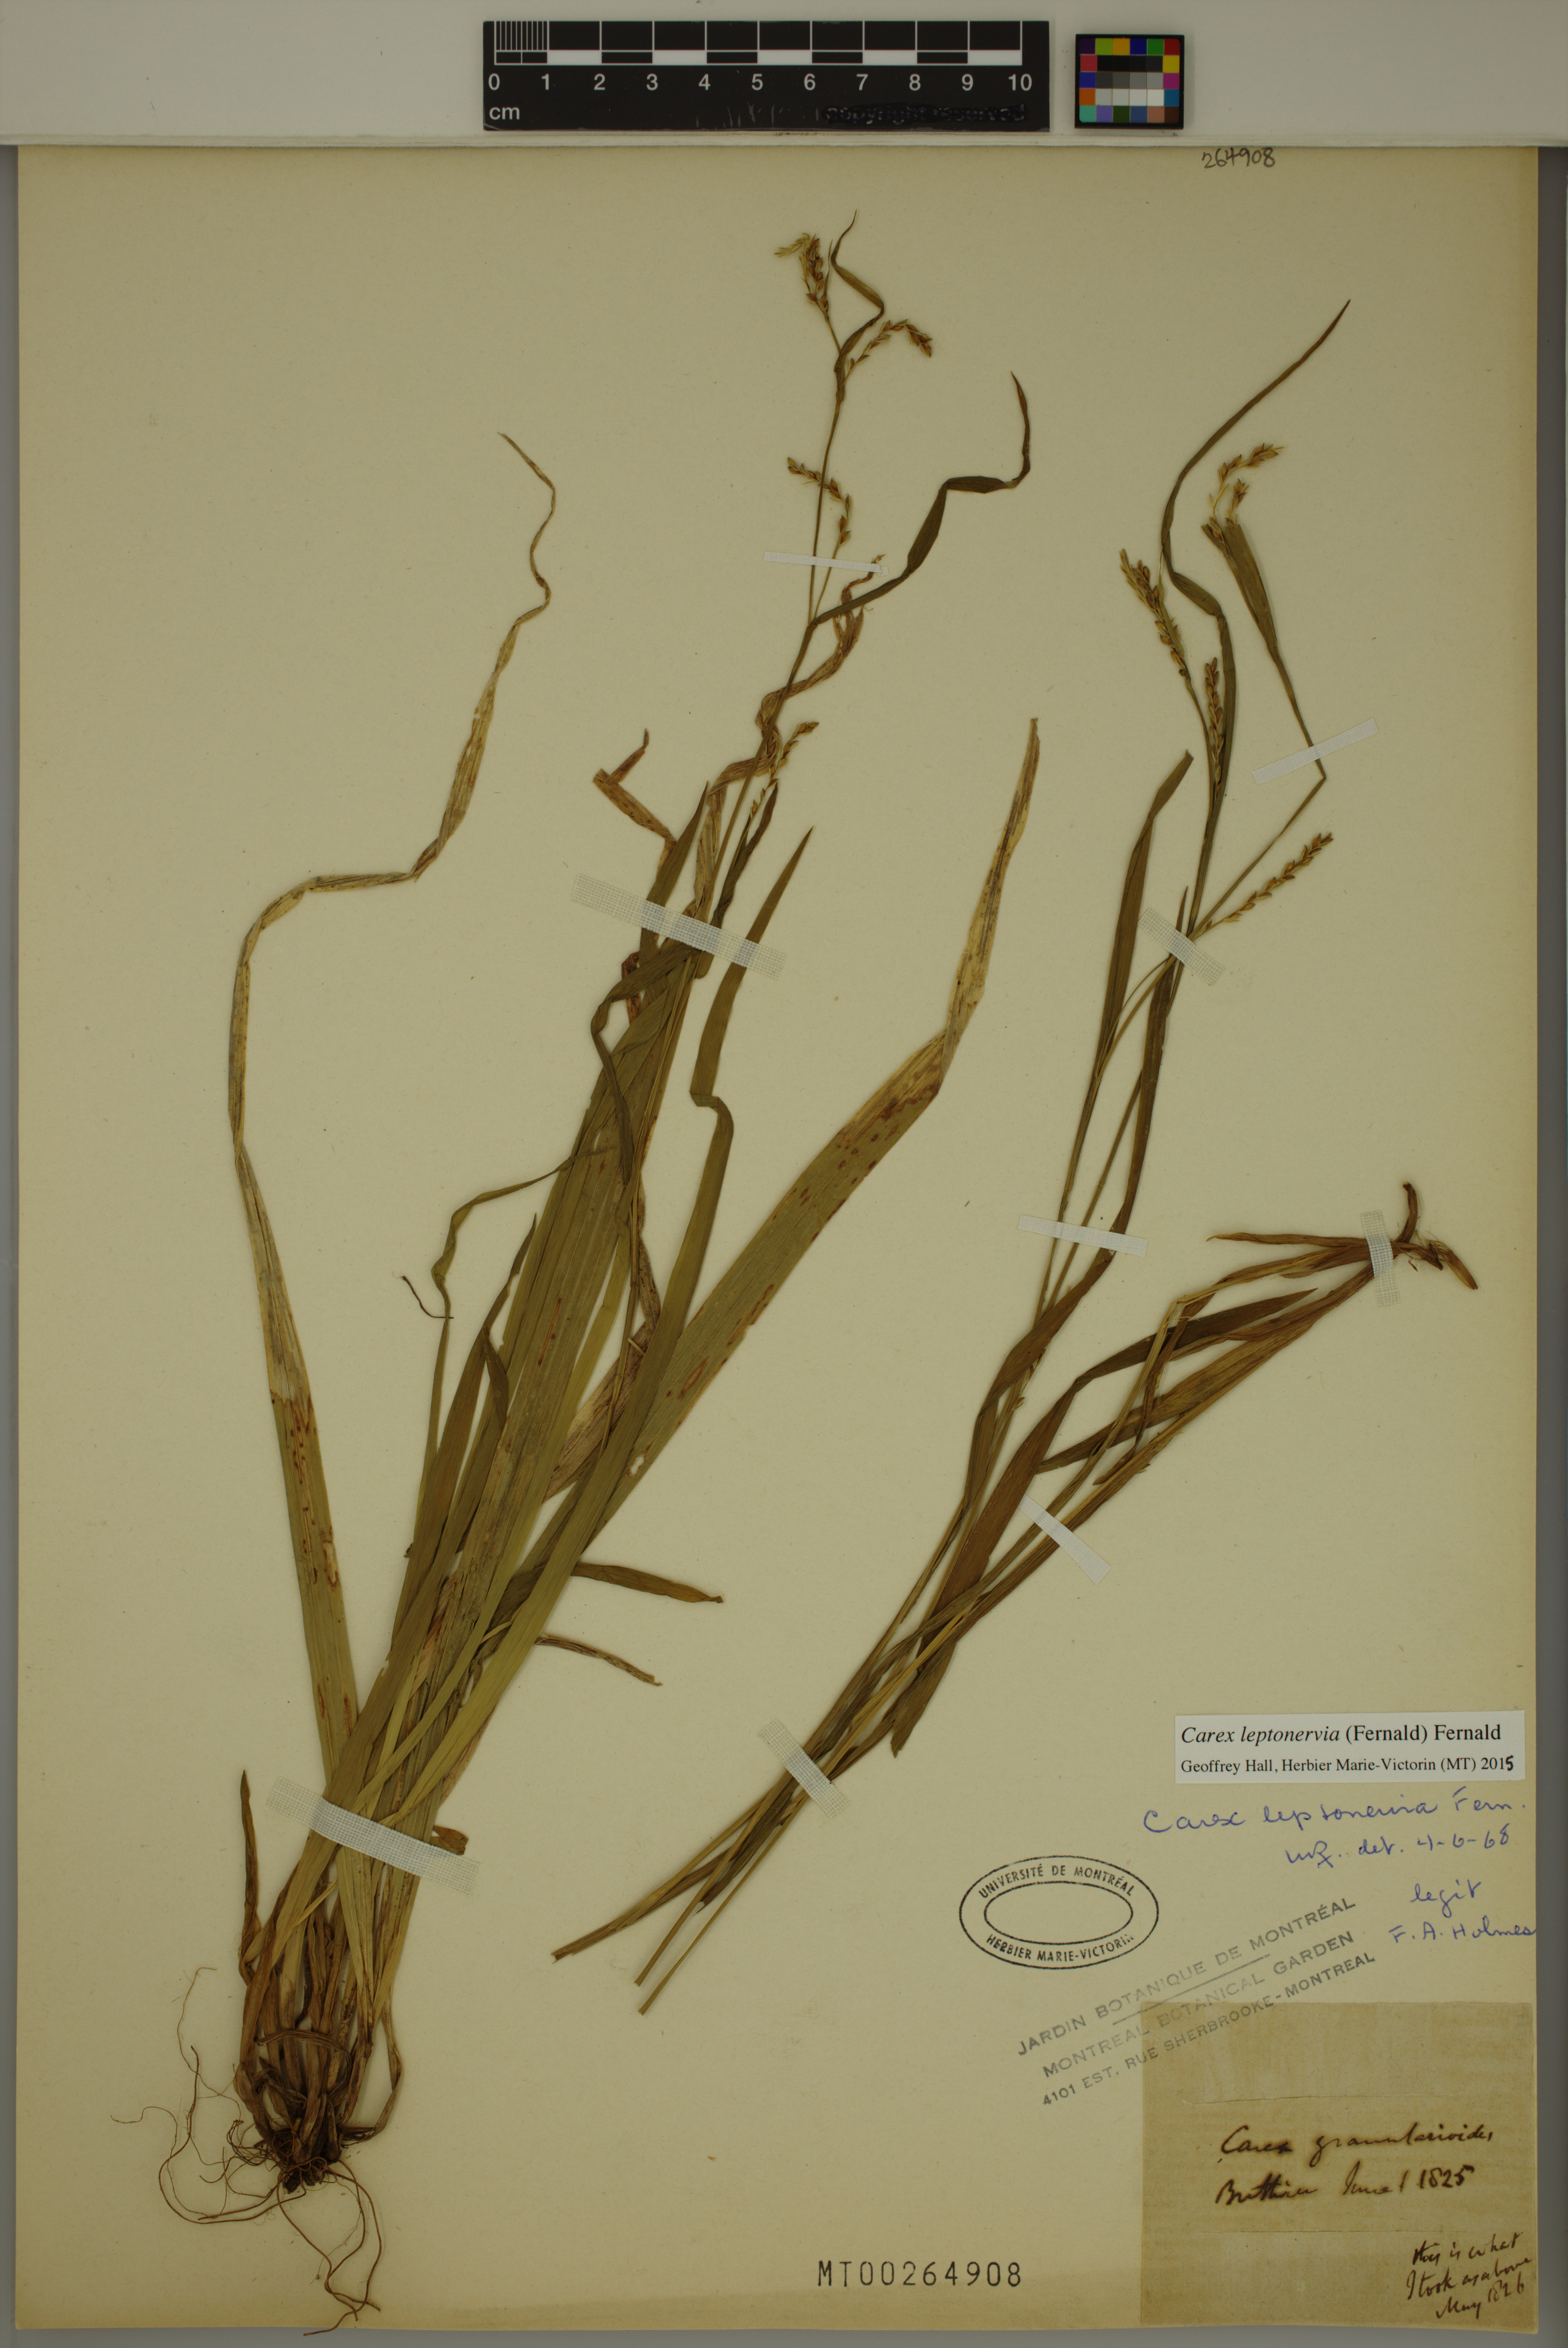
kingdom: Plantae
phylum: Tracheophyta
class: Liliopsida
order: Poales
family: Cyperaceae
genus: Carex
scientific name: Carex leptonervia
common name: Few-nerved wood sedge
